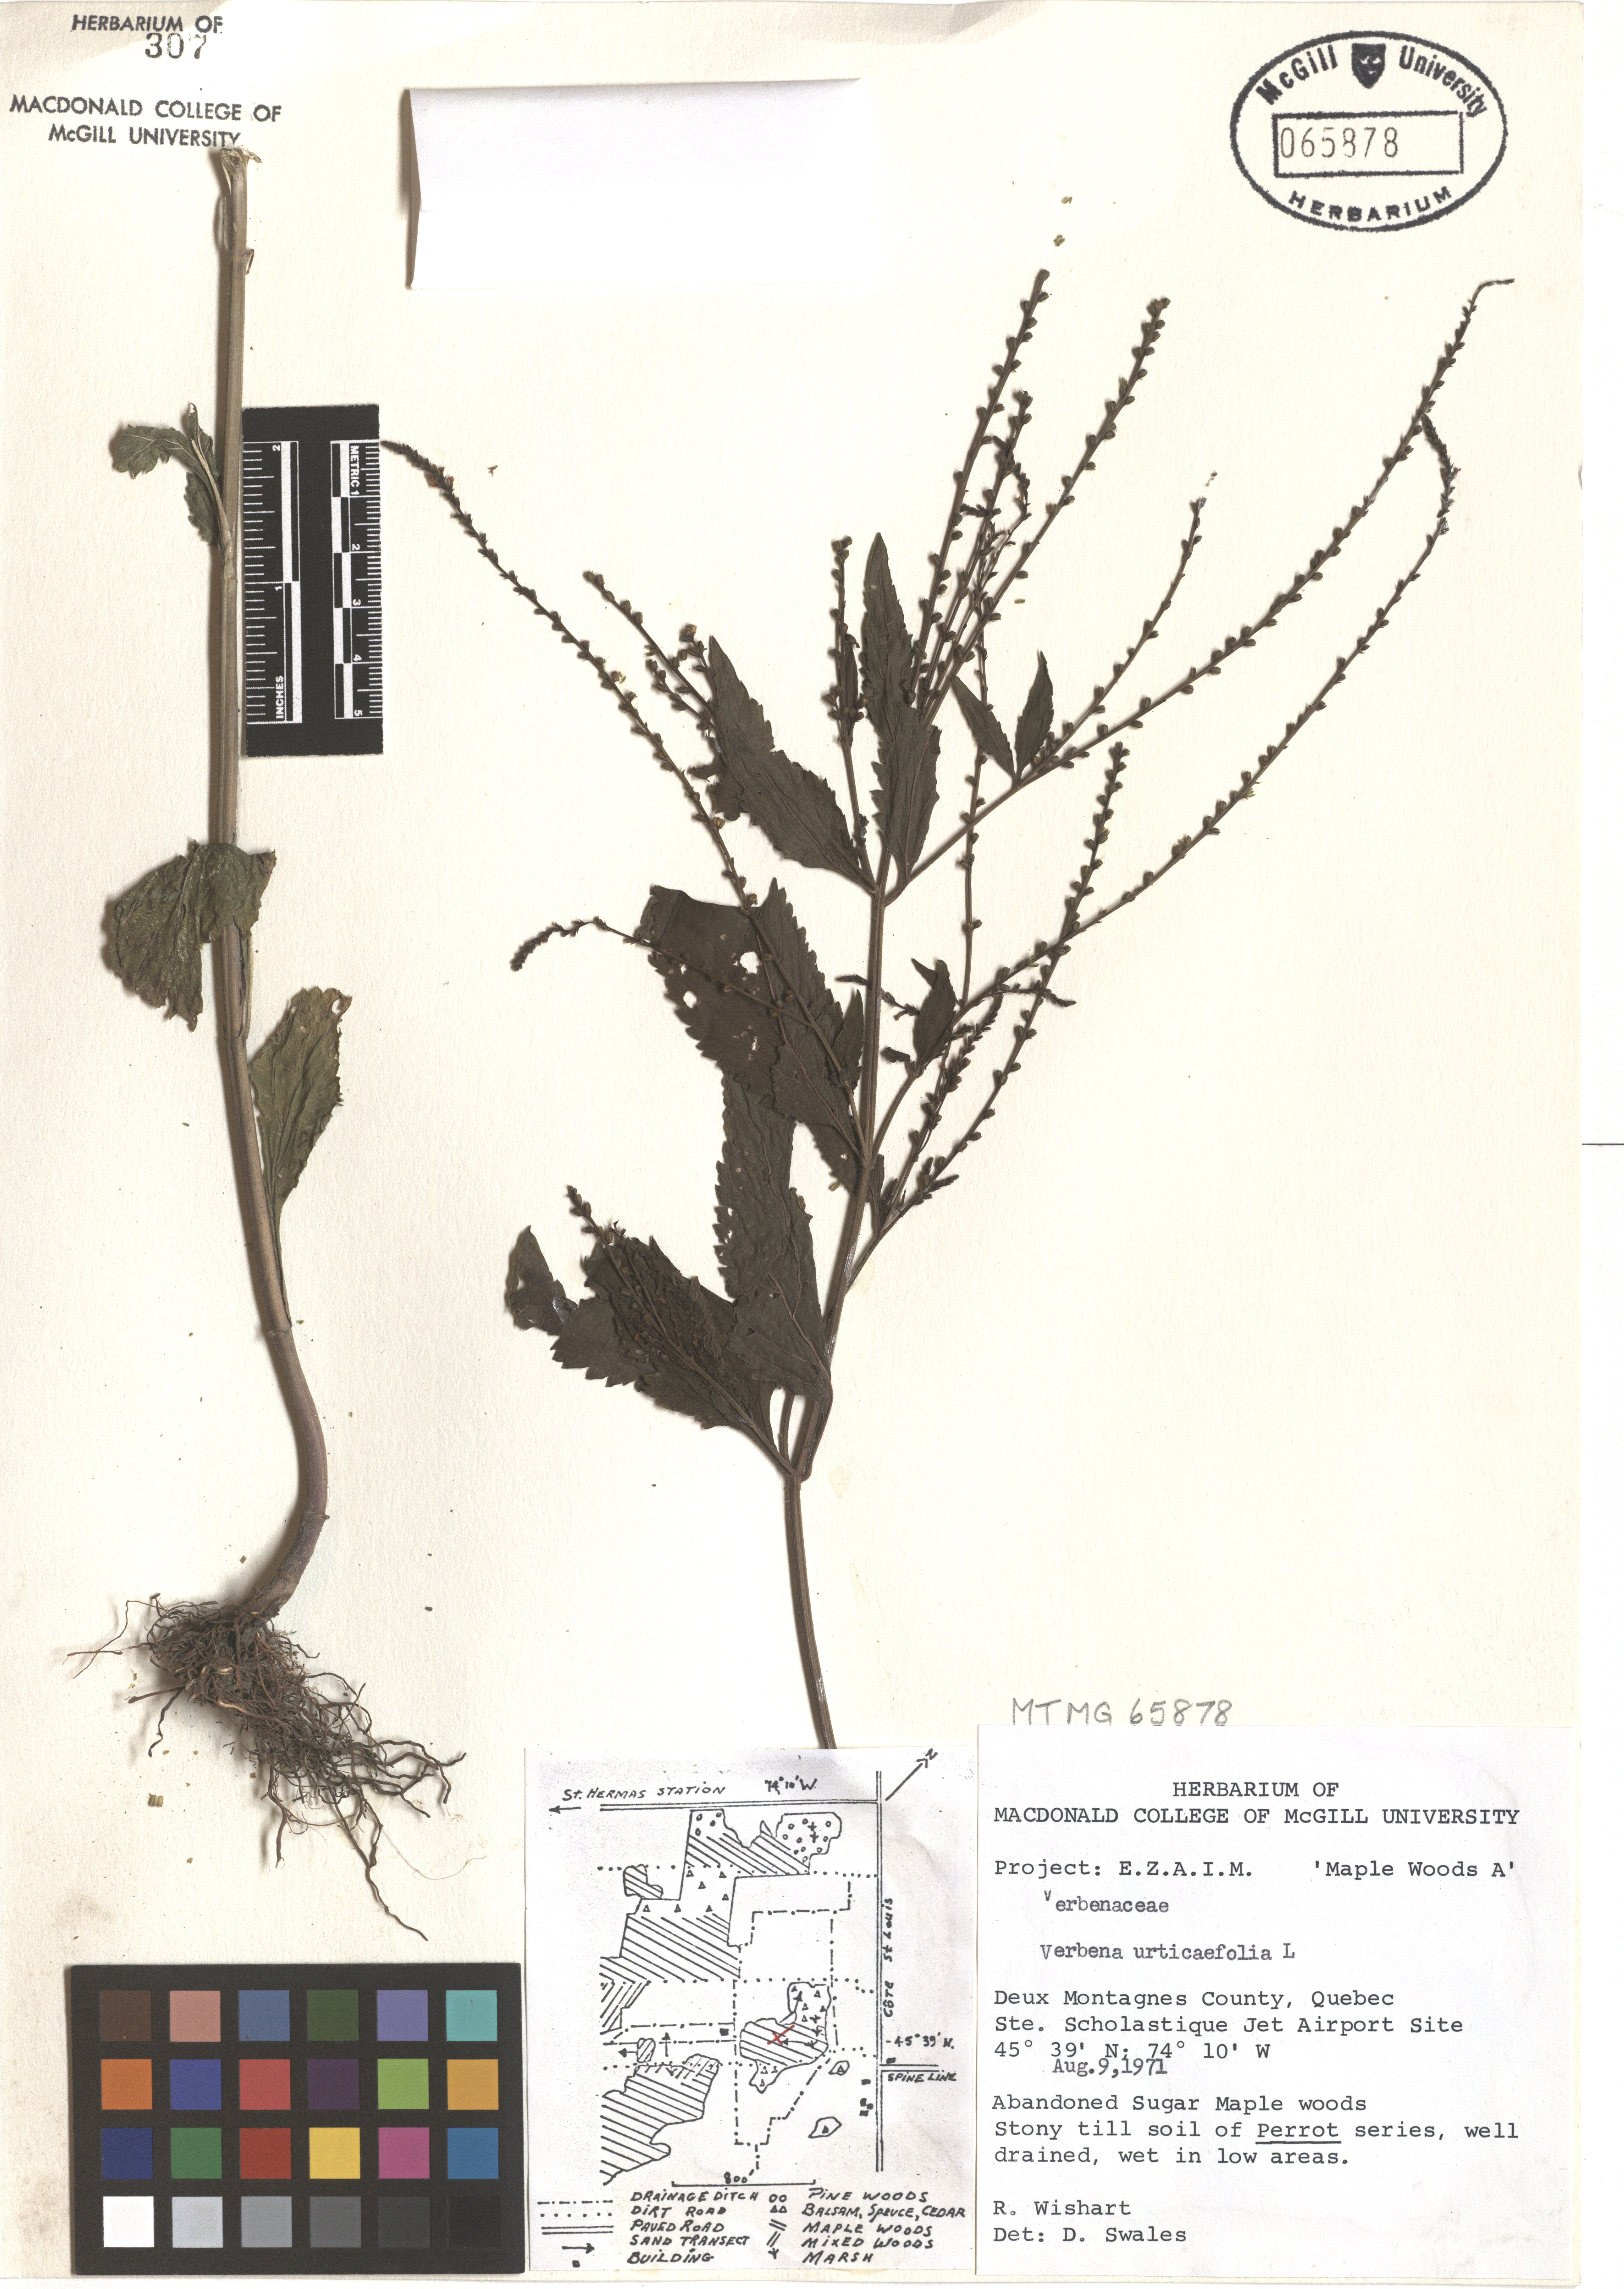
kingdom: Plantae
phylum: Tracheophyta
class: Magnoliopsida
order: Lamiales
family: Verbenaceae
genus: Verbena
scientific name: Verbena urticifolia
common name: Nettle-leaved vervain
